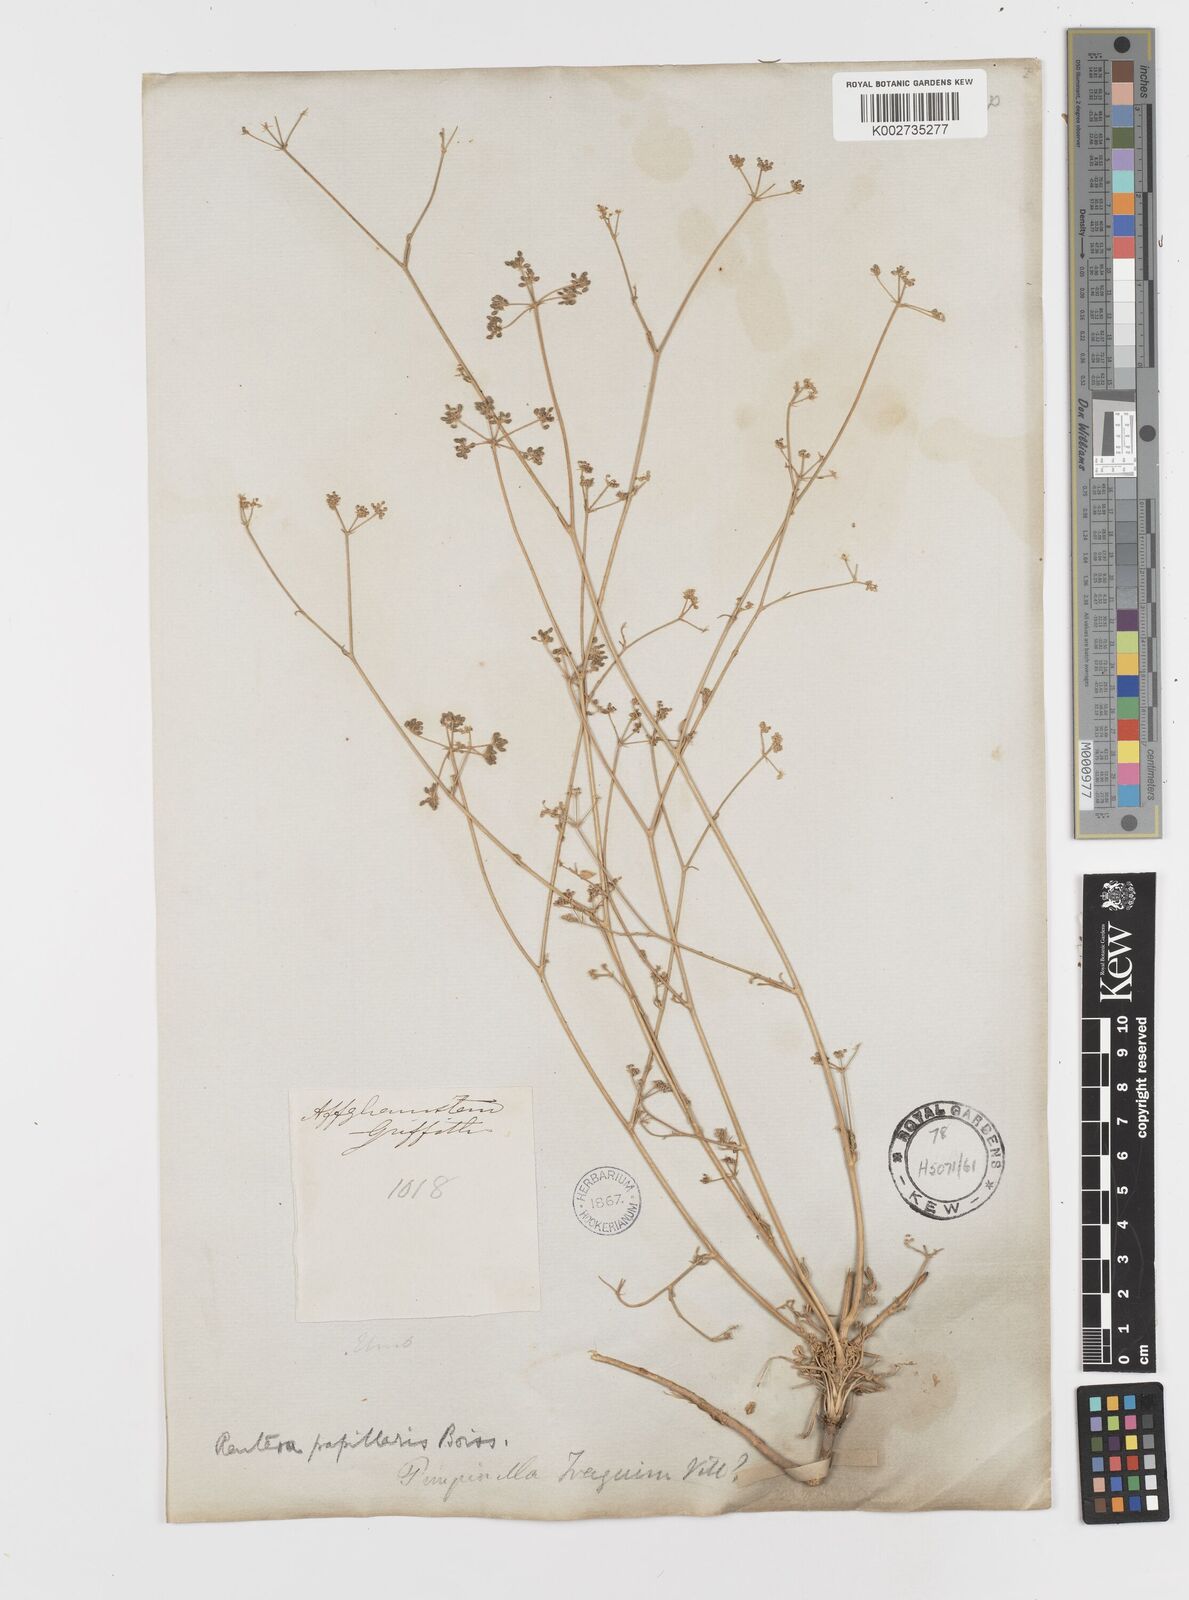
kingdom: Plantae
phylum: Tracheophyta
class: Magnoliopsida
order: Apiales
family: Apiaceae
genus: Psammogeton
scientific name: Psammogeton papillare
